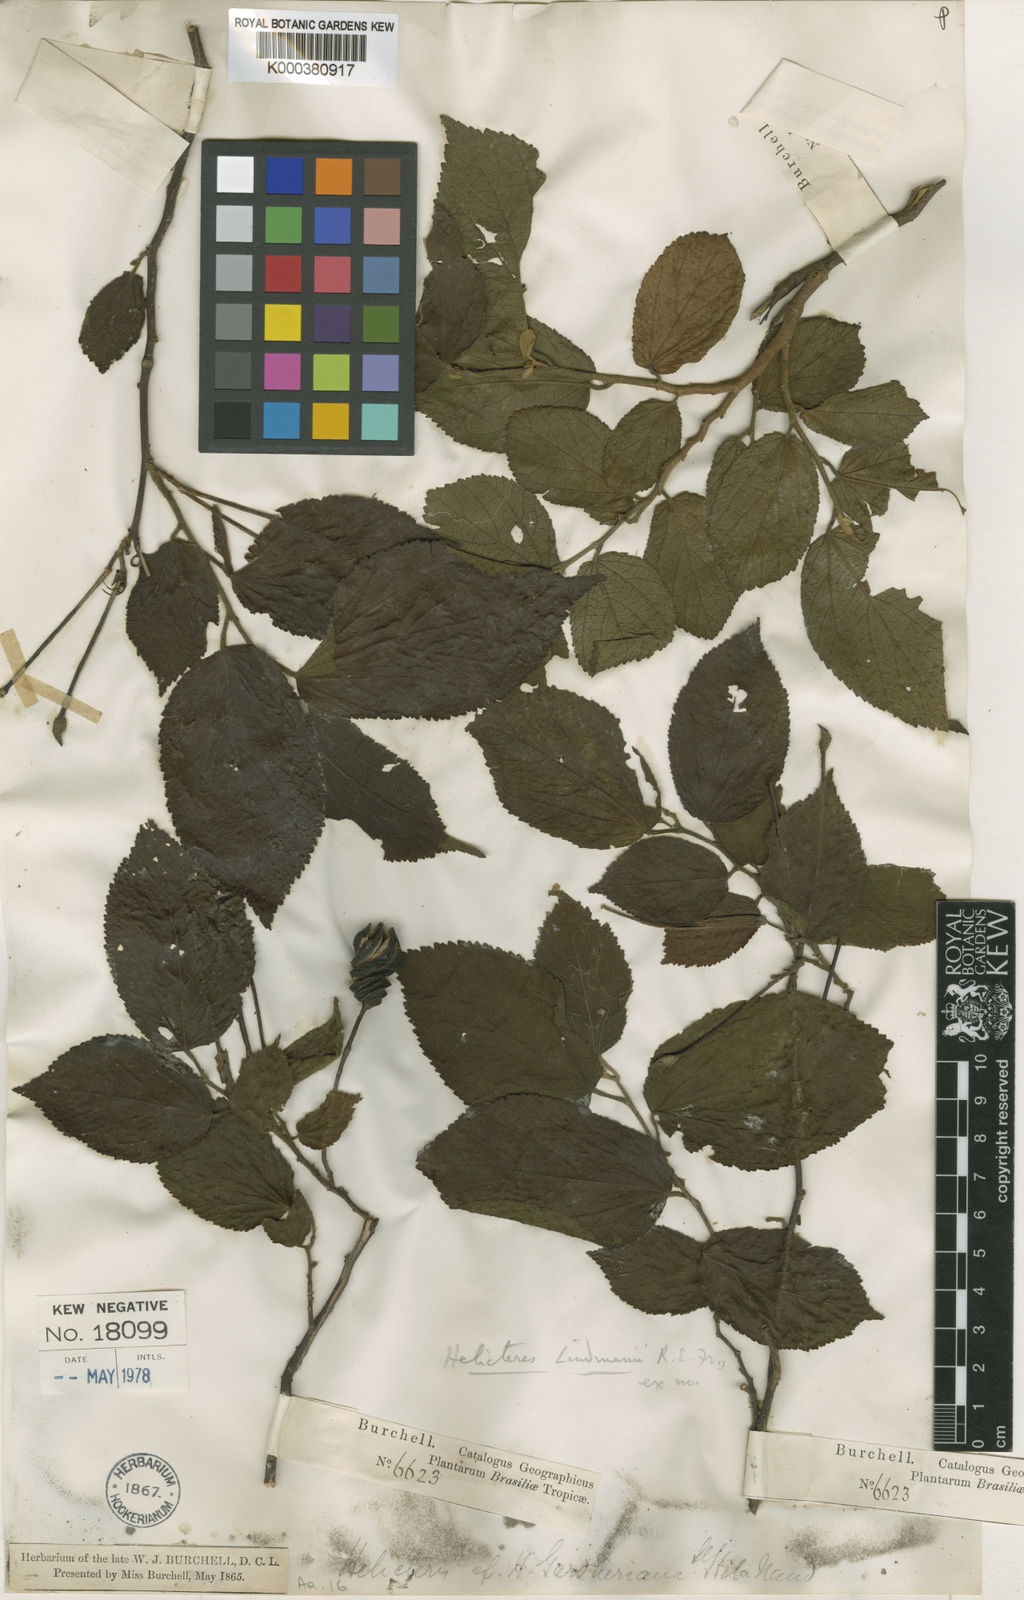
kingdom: Plantae
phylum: Tracheophyta
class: Magnoliopsida
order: Malvales
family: Malvaceae
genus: Helicteres
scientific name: Helicteres corylifolia
